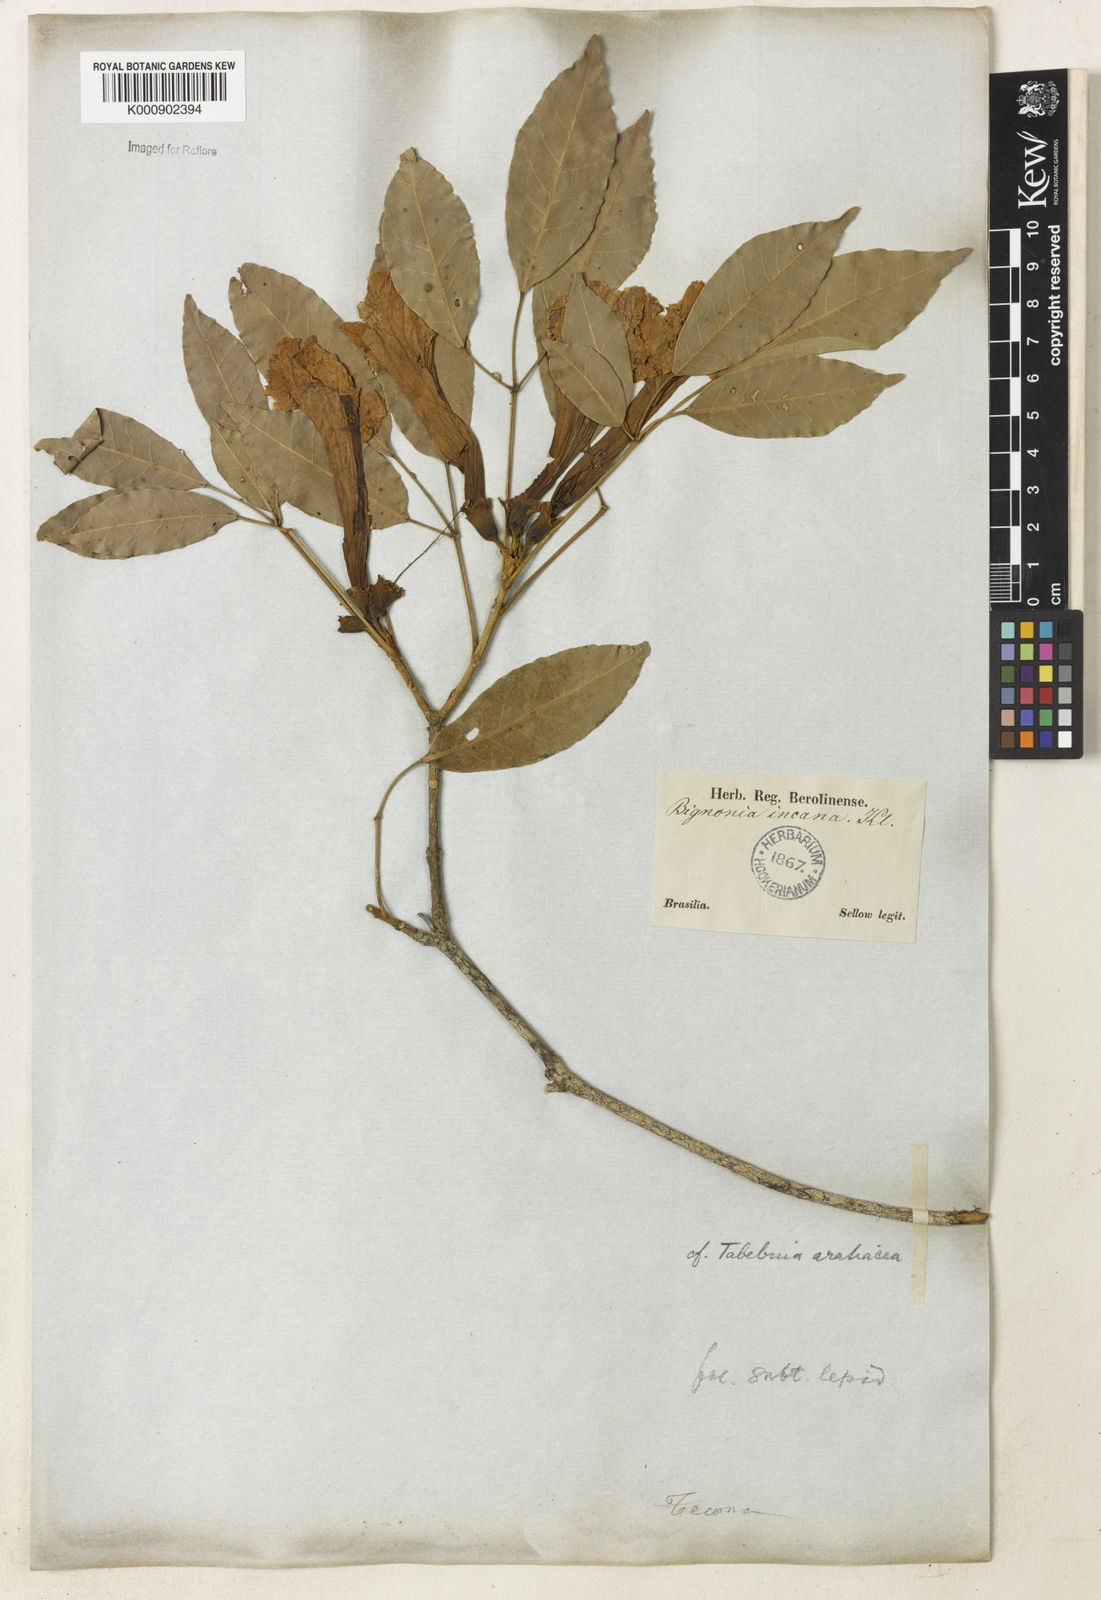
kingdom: Plantae
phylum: Tracheophyta
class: Magnoliopsida
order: Lamiales
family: Bignoniaceae
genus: Handroanthus
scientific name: Handroanthus serratifolius
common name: Yellow ipe
